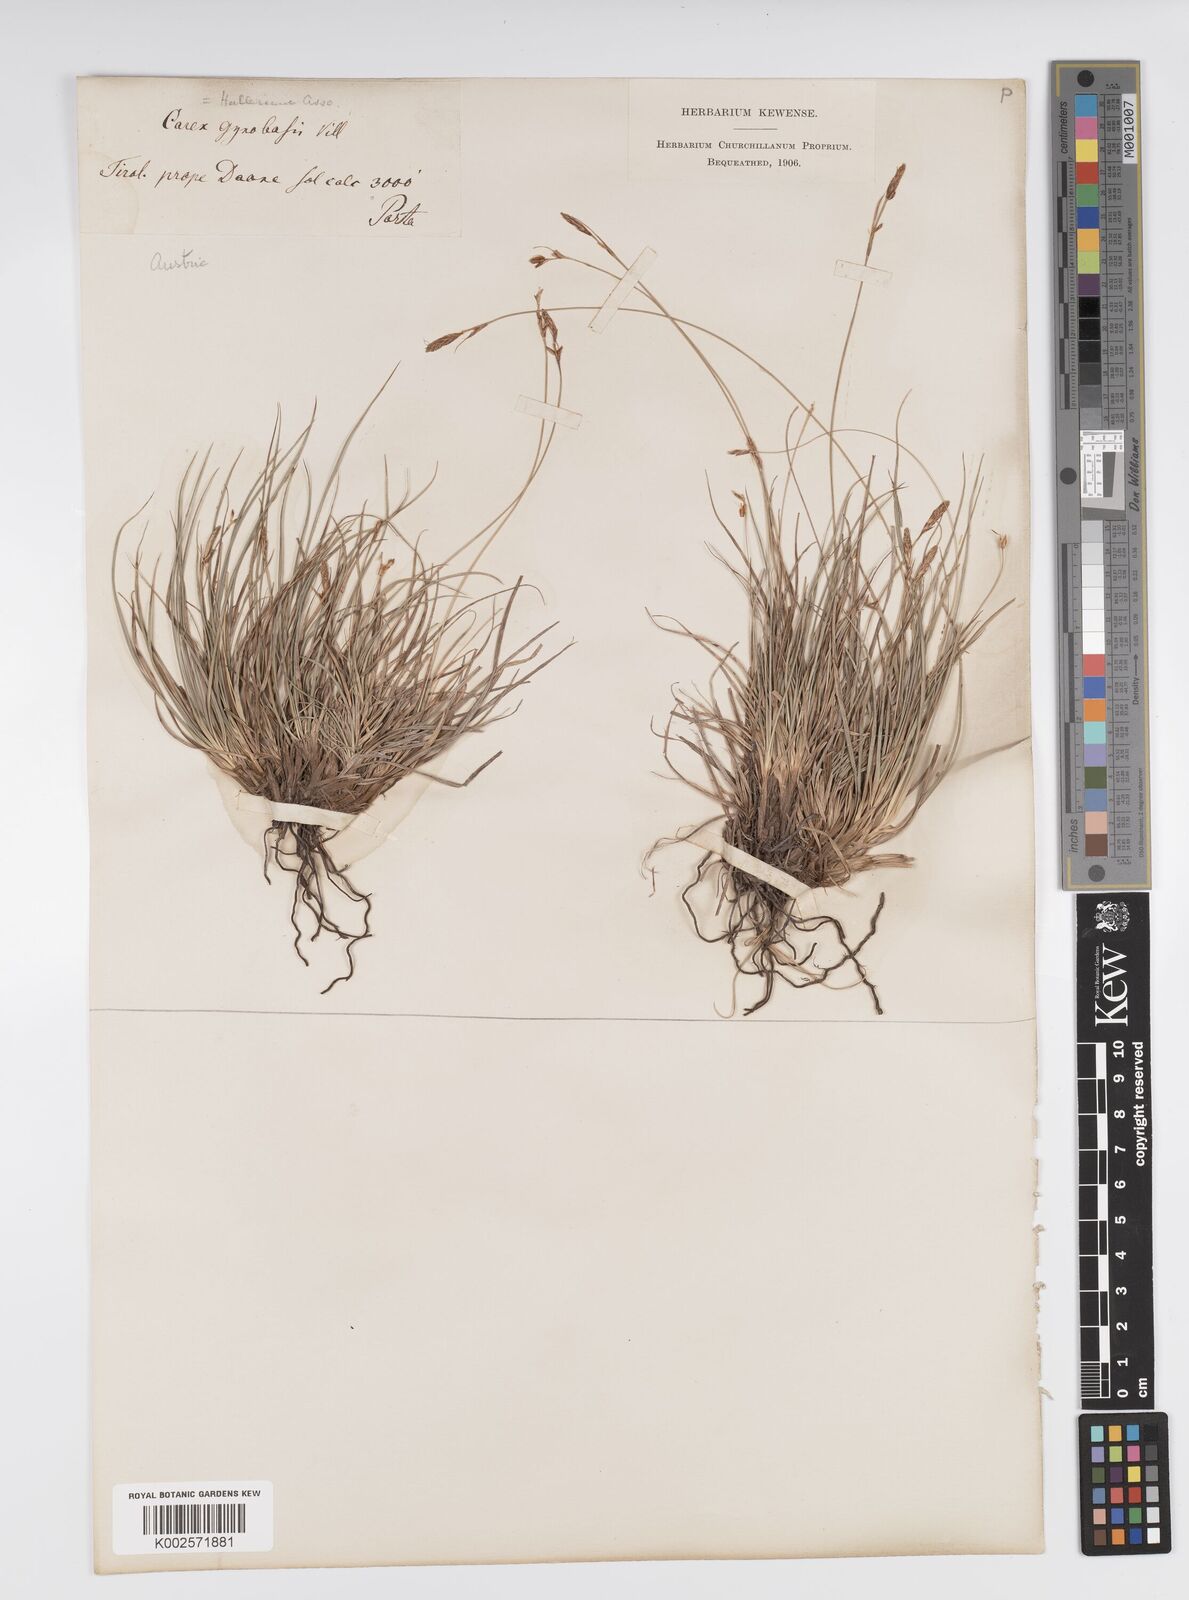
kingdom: Plantae
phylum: Tracheophyta
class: Liliopsida
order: Poales
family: Cyperaceae
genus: Carex
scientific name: Carex halleriana
